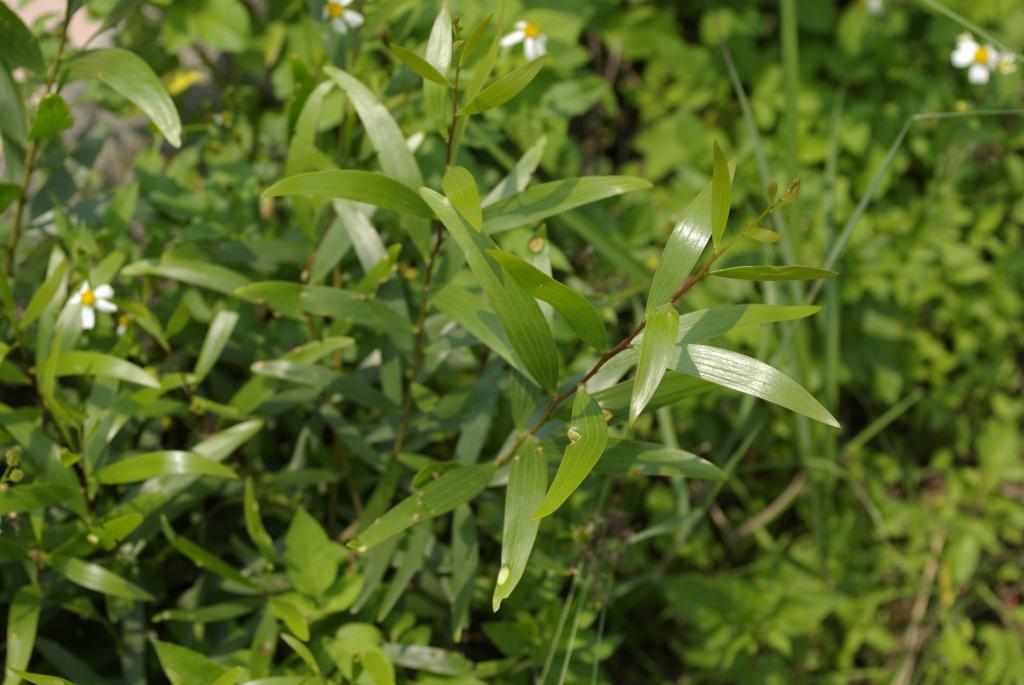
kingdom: Plantae
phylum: Tracheophyta
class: Magnoliopsida
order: Fabales
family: Fabaceae
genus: Acacia
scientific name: Acacia confusa
